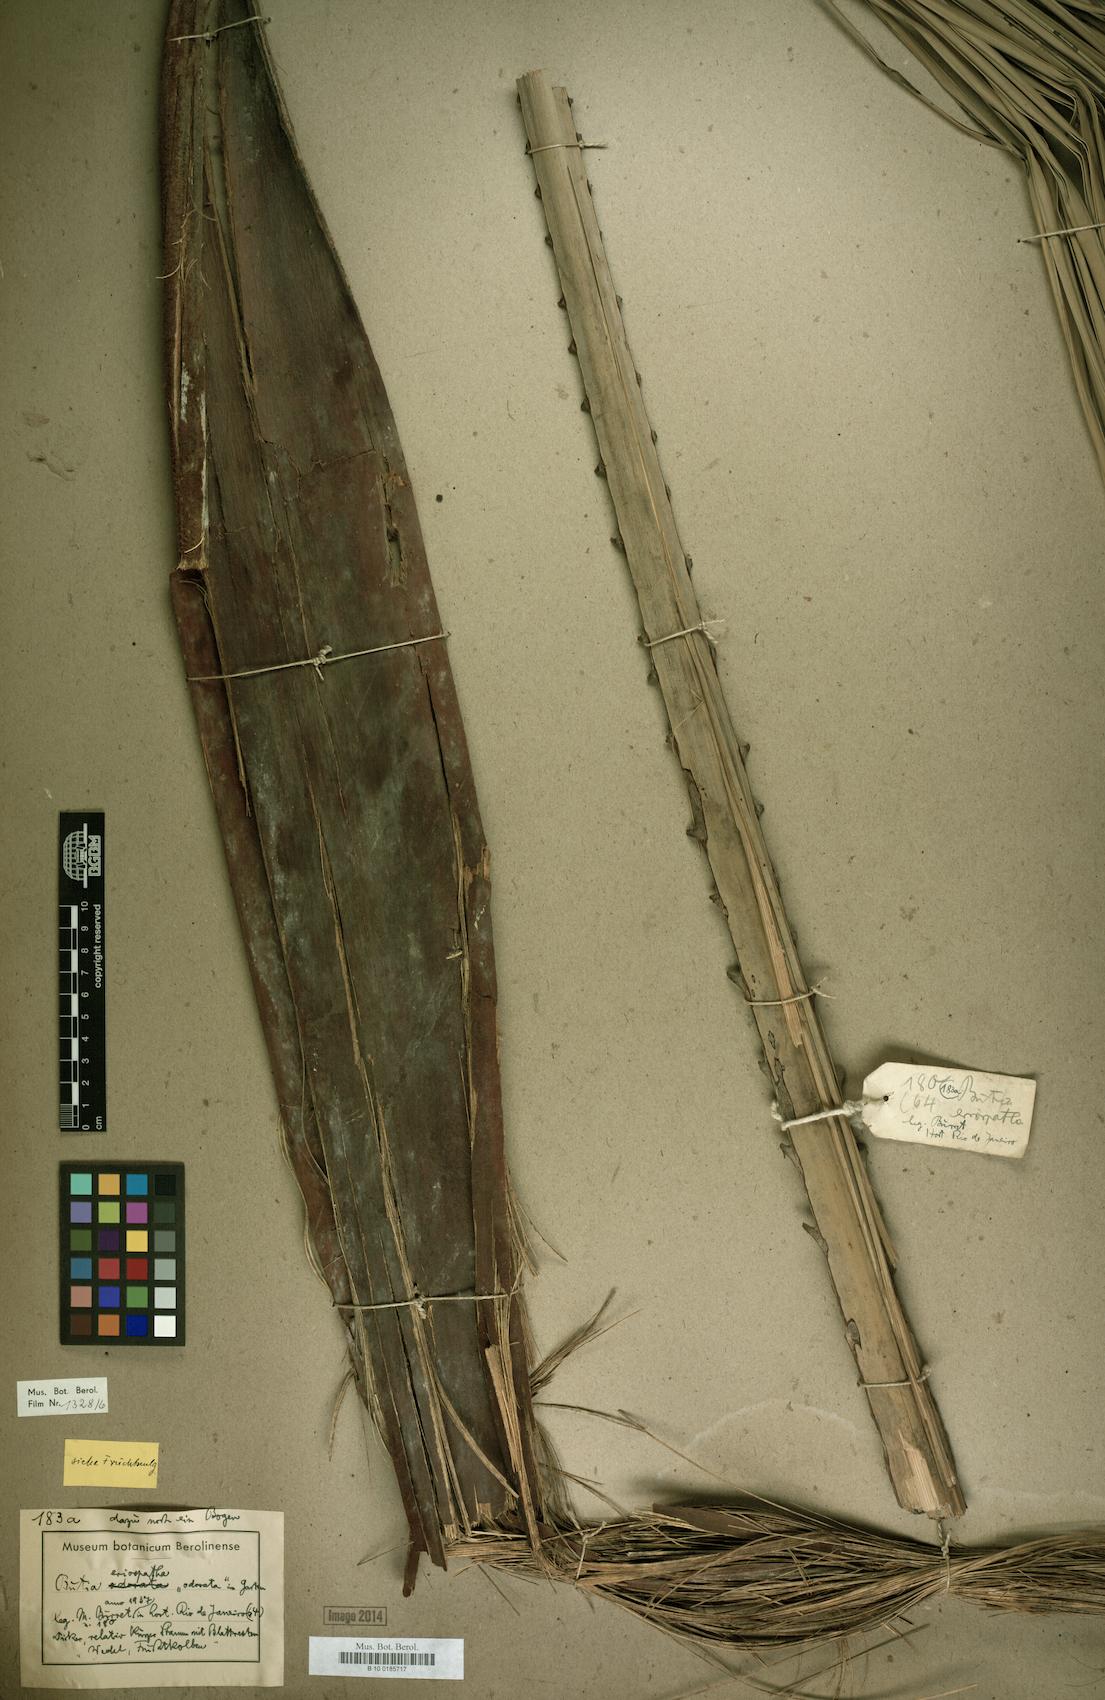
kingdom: Plantae
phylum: Tracheophyta
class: Liliopsida
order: Arecales
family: Arecaceae
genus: Butia
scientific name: Butia eriospatha
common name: Woolly jelly palm
